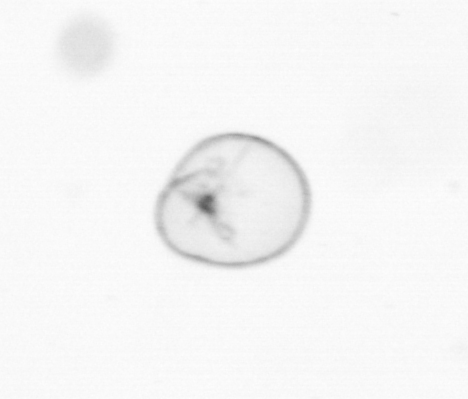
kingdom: Chromista
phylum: Myzozoa
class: Dinophyceae
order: Noctilucales
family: Noctilucaceae
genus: Noctiluca
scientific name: Noctiluca scintillans
